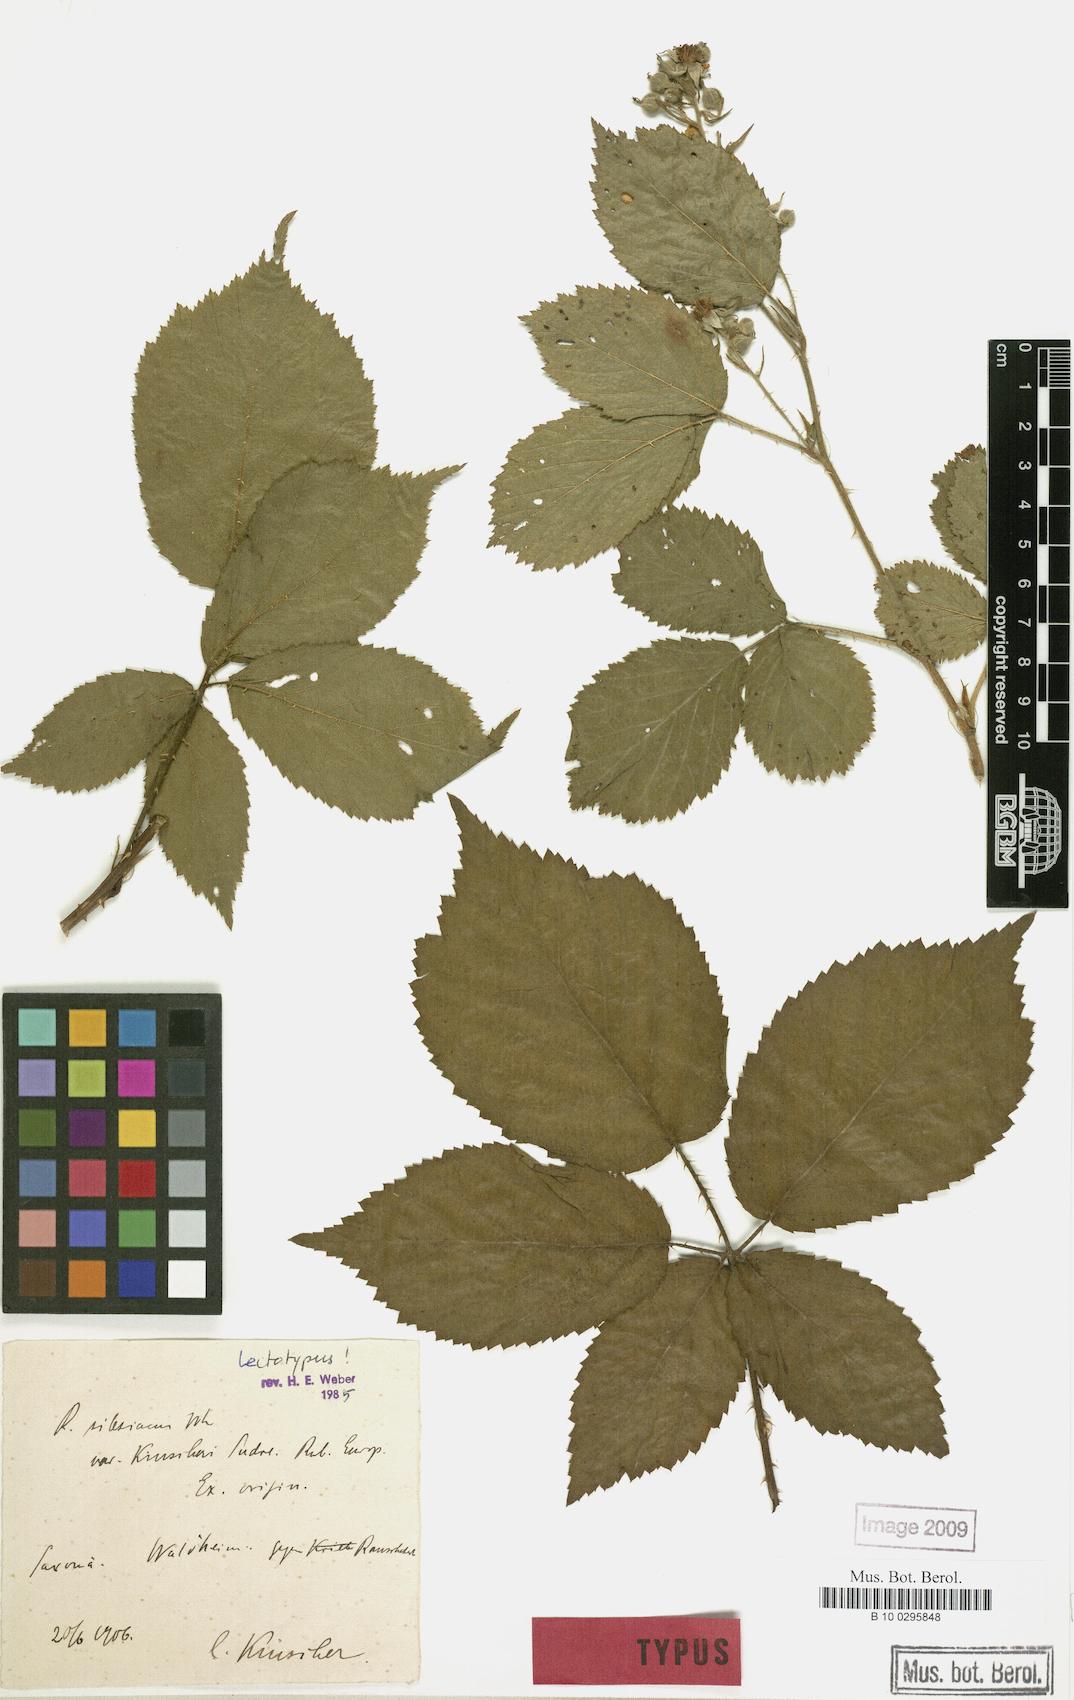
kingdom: Plantae
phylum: Tracheophyta
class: Magnoliopsida
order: Rosales
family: Rosaceae
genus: Rubus
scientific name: Rubus geminatus
